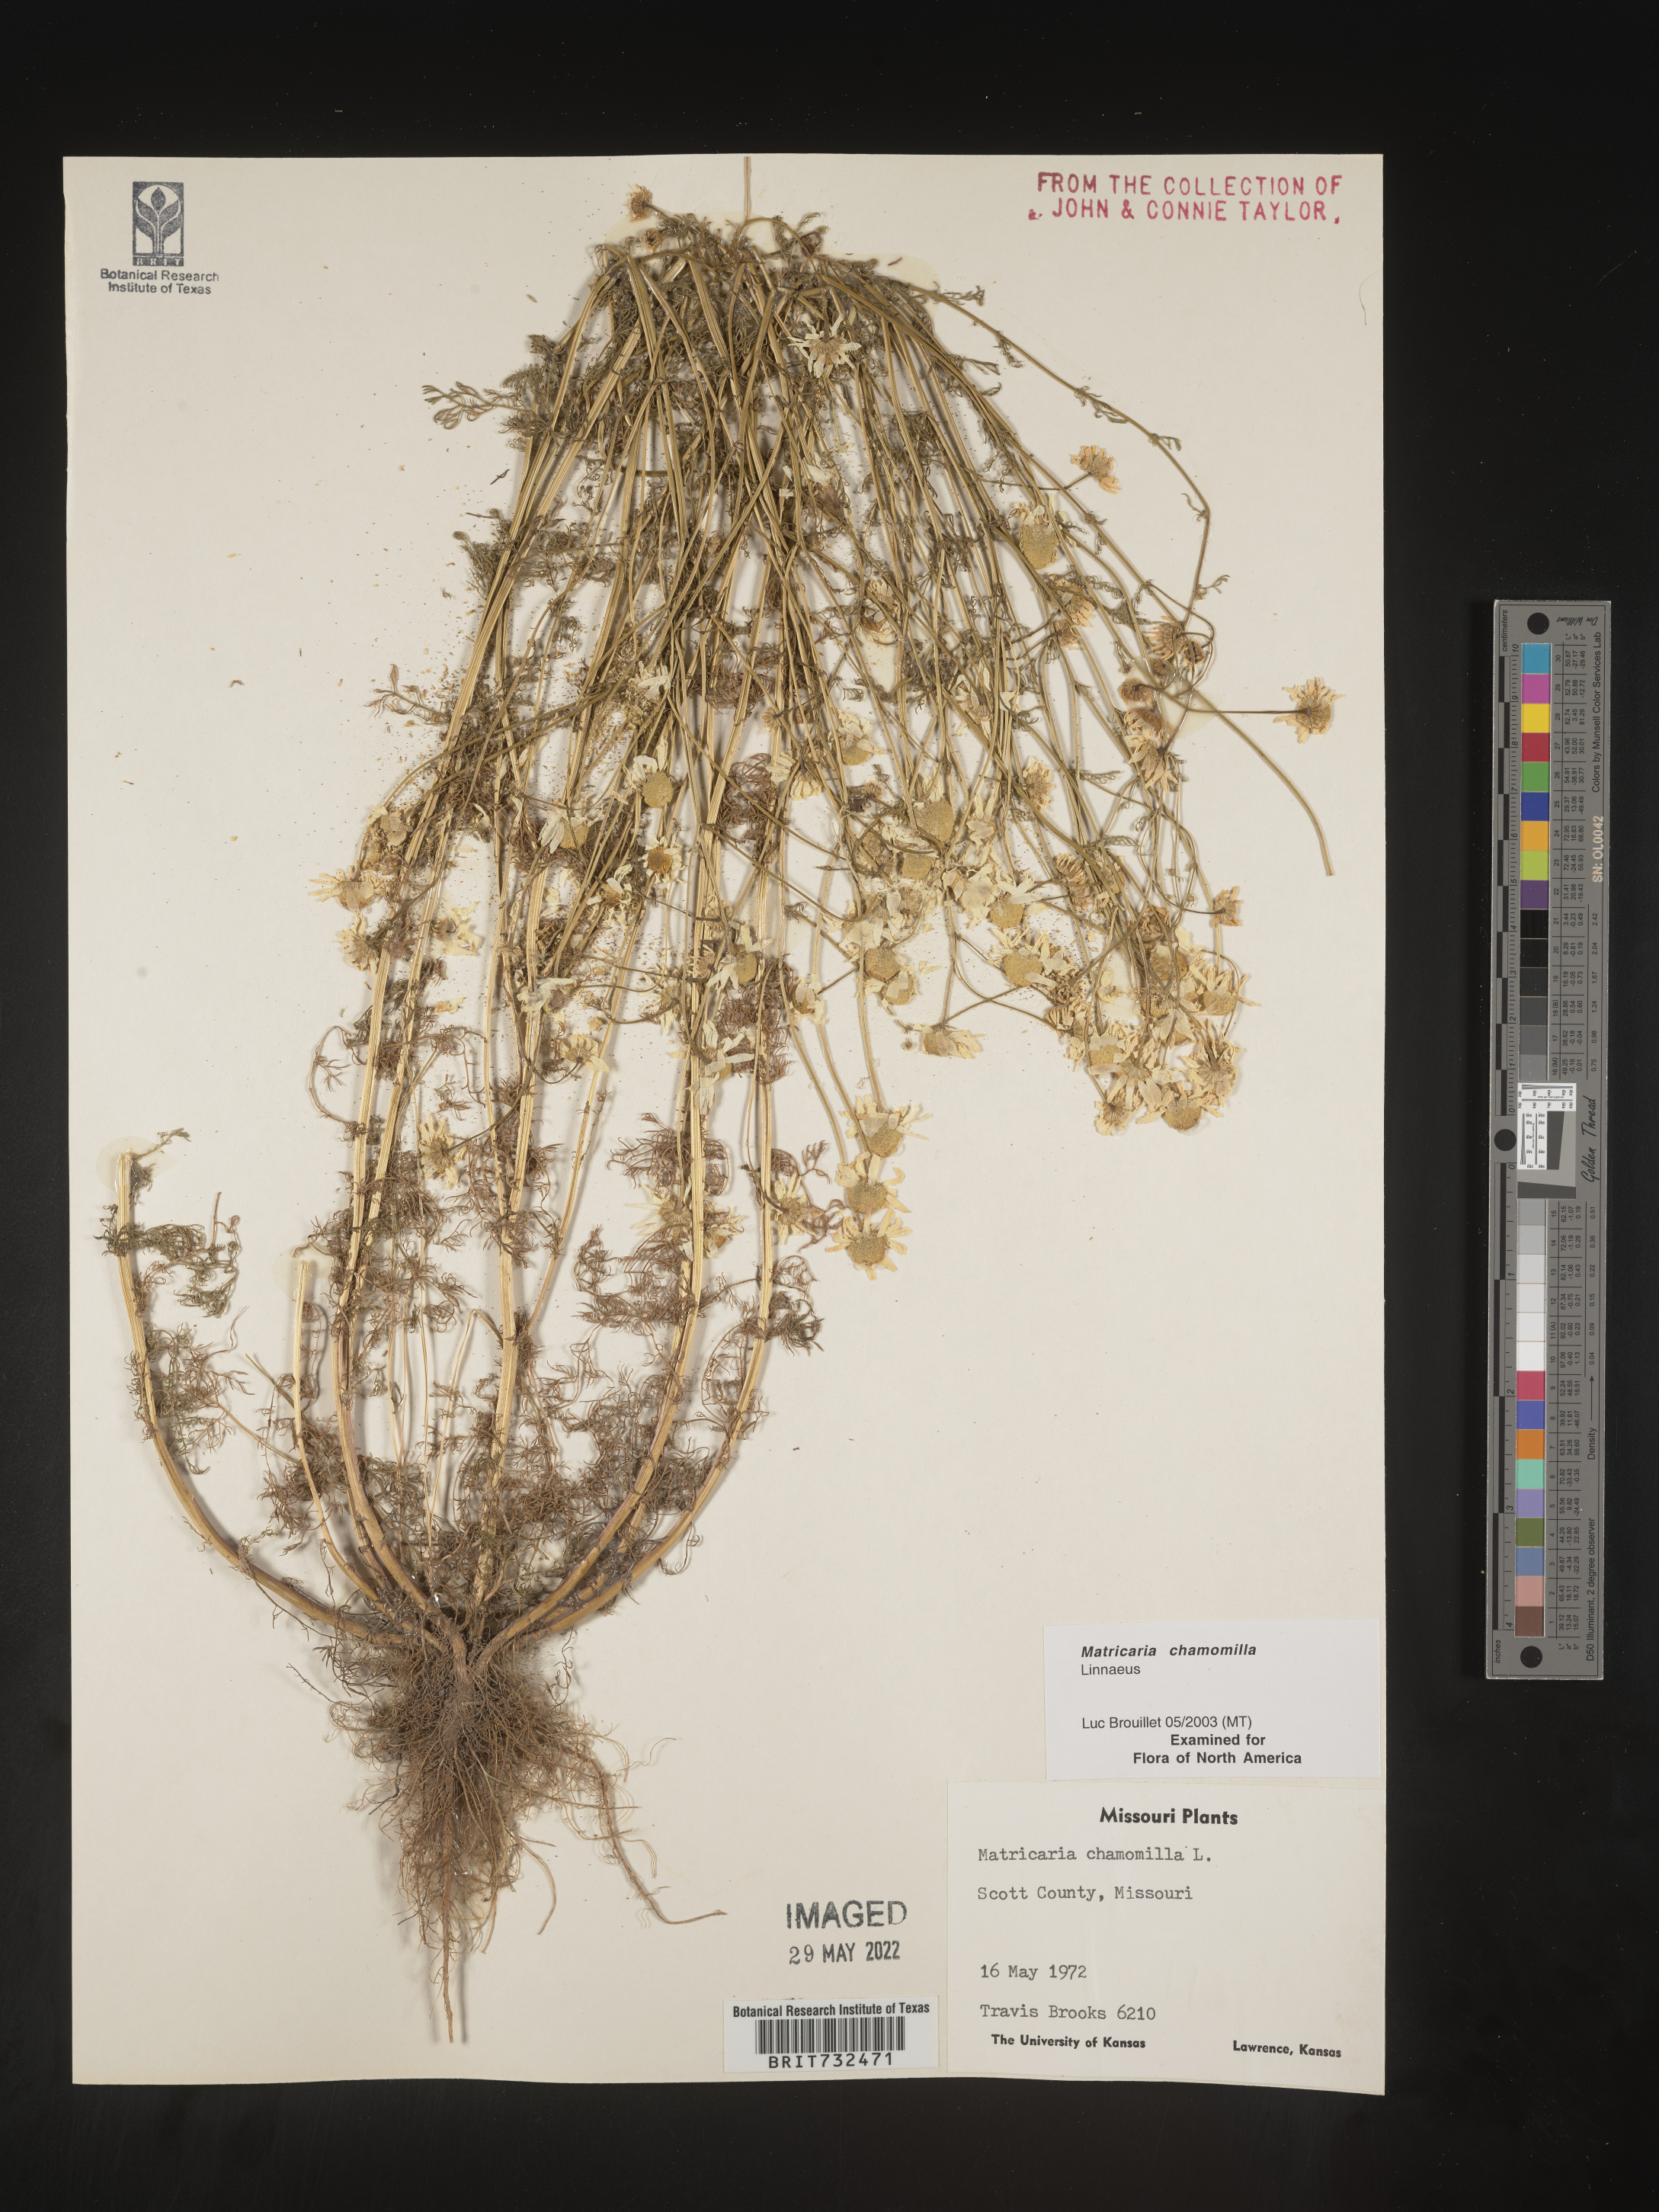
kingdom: Plantae
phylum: Tracheophyta
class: Magnoliopsida
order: Asterales
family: Asteraceae
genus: Matricaria
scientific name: Matricaria chamomilla
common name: Scented mayweed
